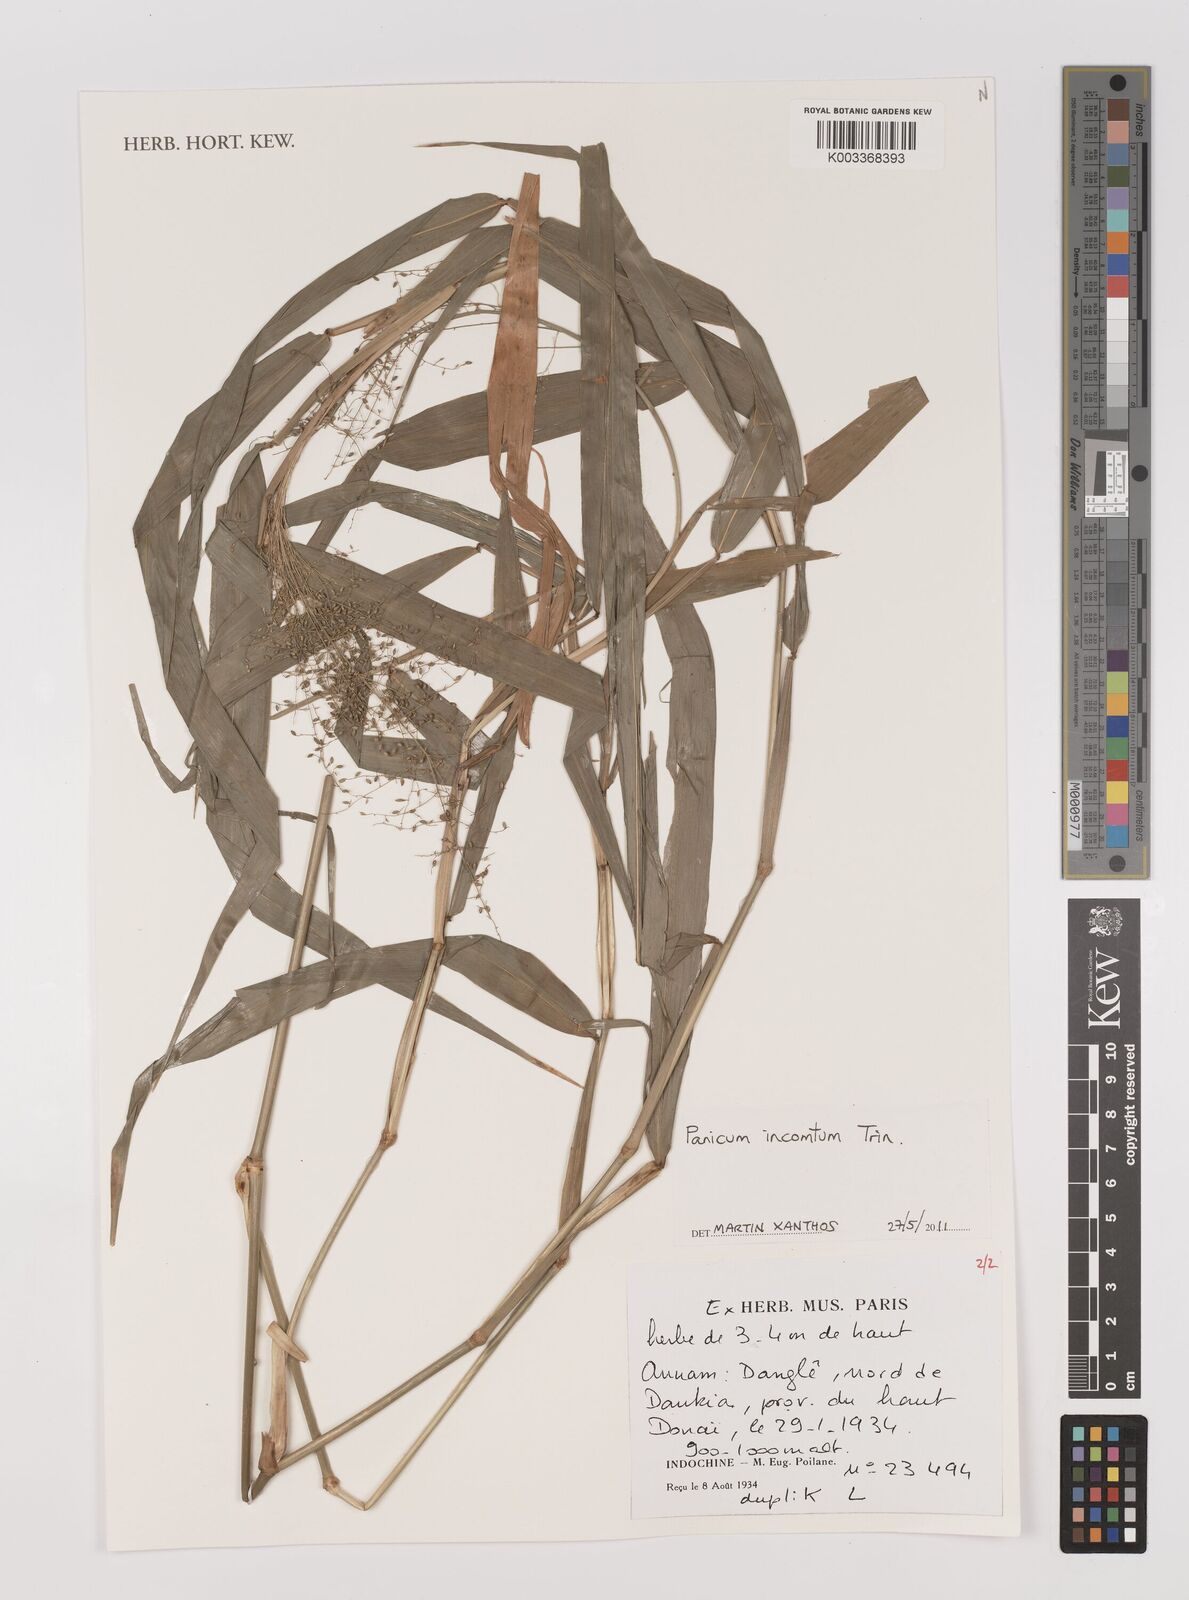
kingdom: Plantae
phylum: Tracheophyta
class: Liliopsida
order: Poales
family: Poaceae
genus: Panicum
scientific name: Panicum incomtum
